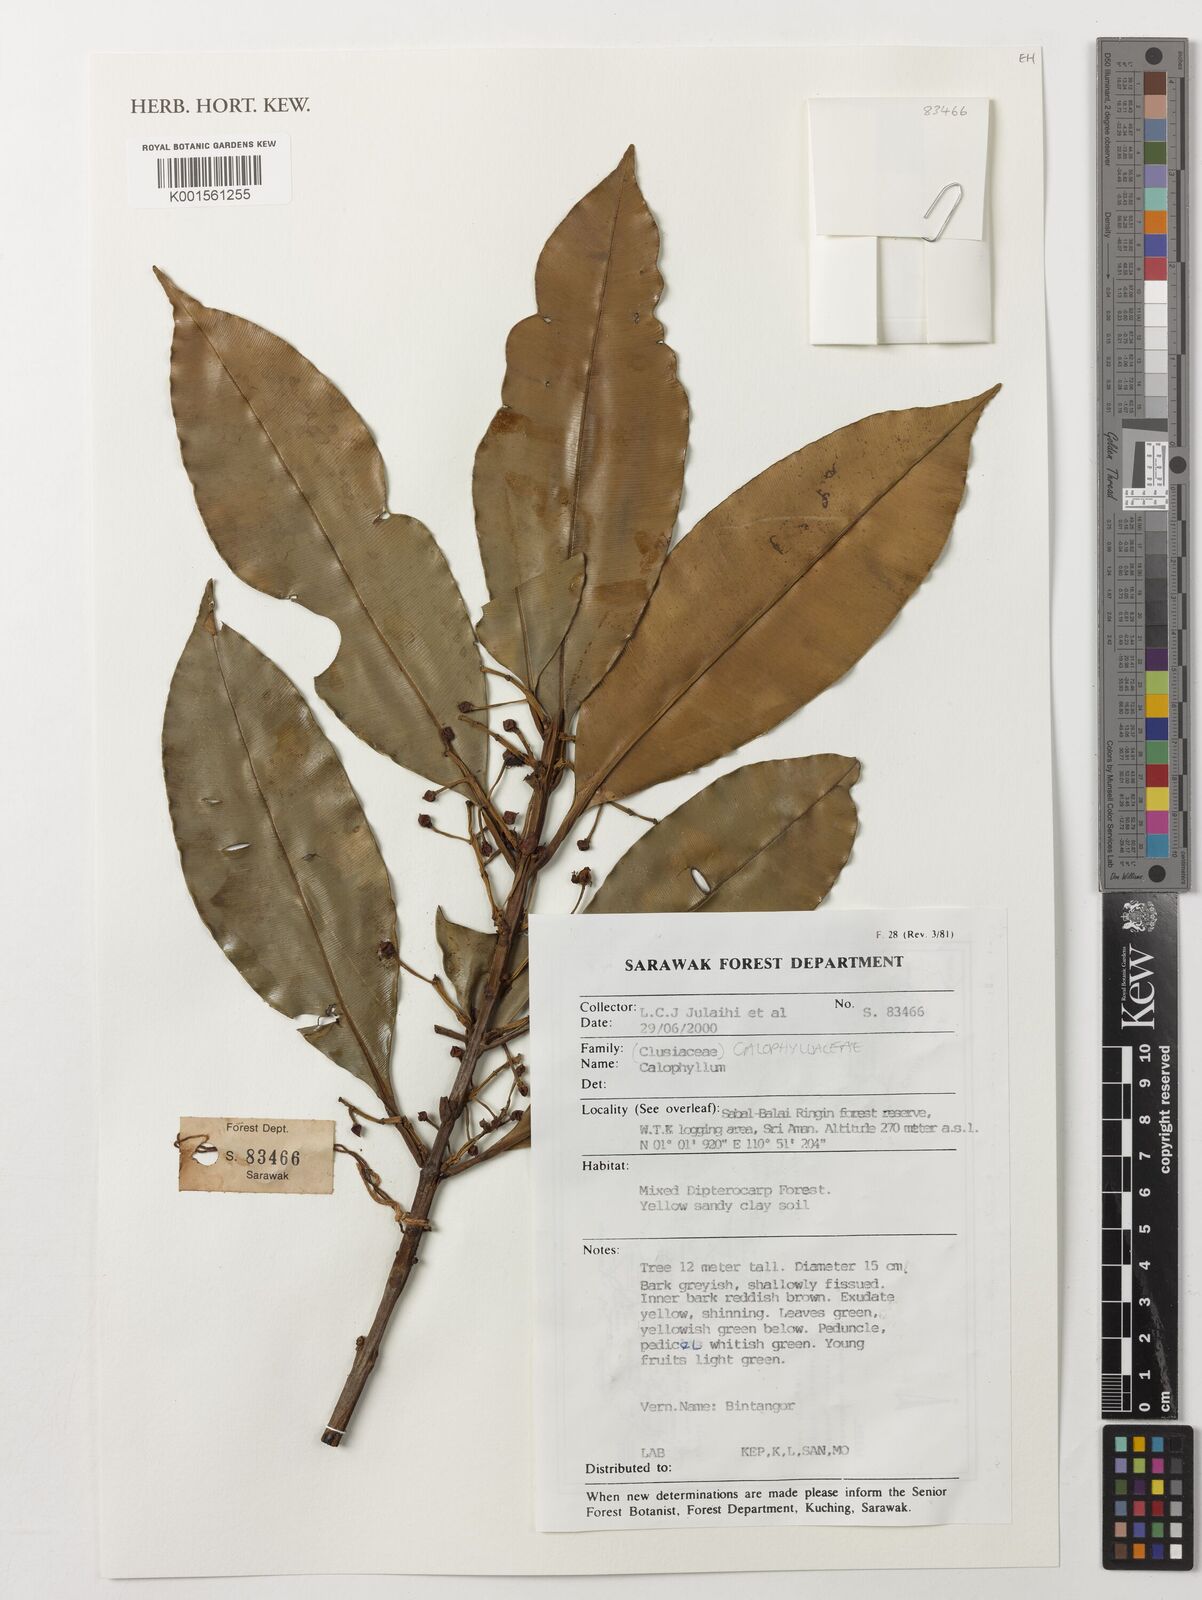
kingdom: Plantae
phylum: Tracheophyta
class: Magnoliopsida
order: Malpighiales
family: Calophyllaceae
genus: Calophyllum
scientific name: Calophyllum
